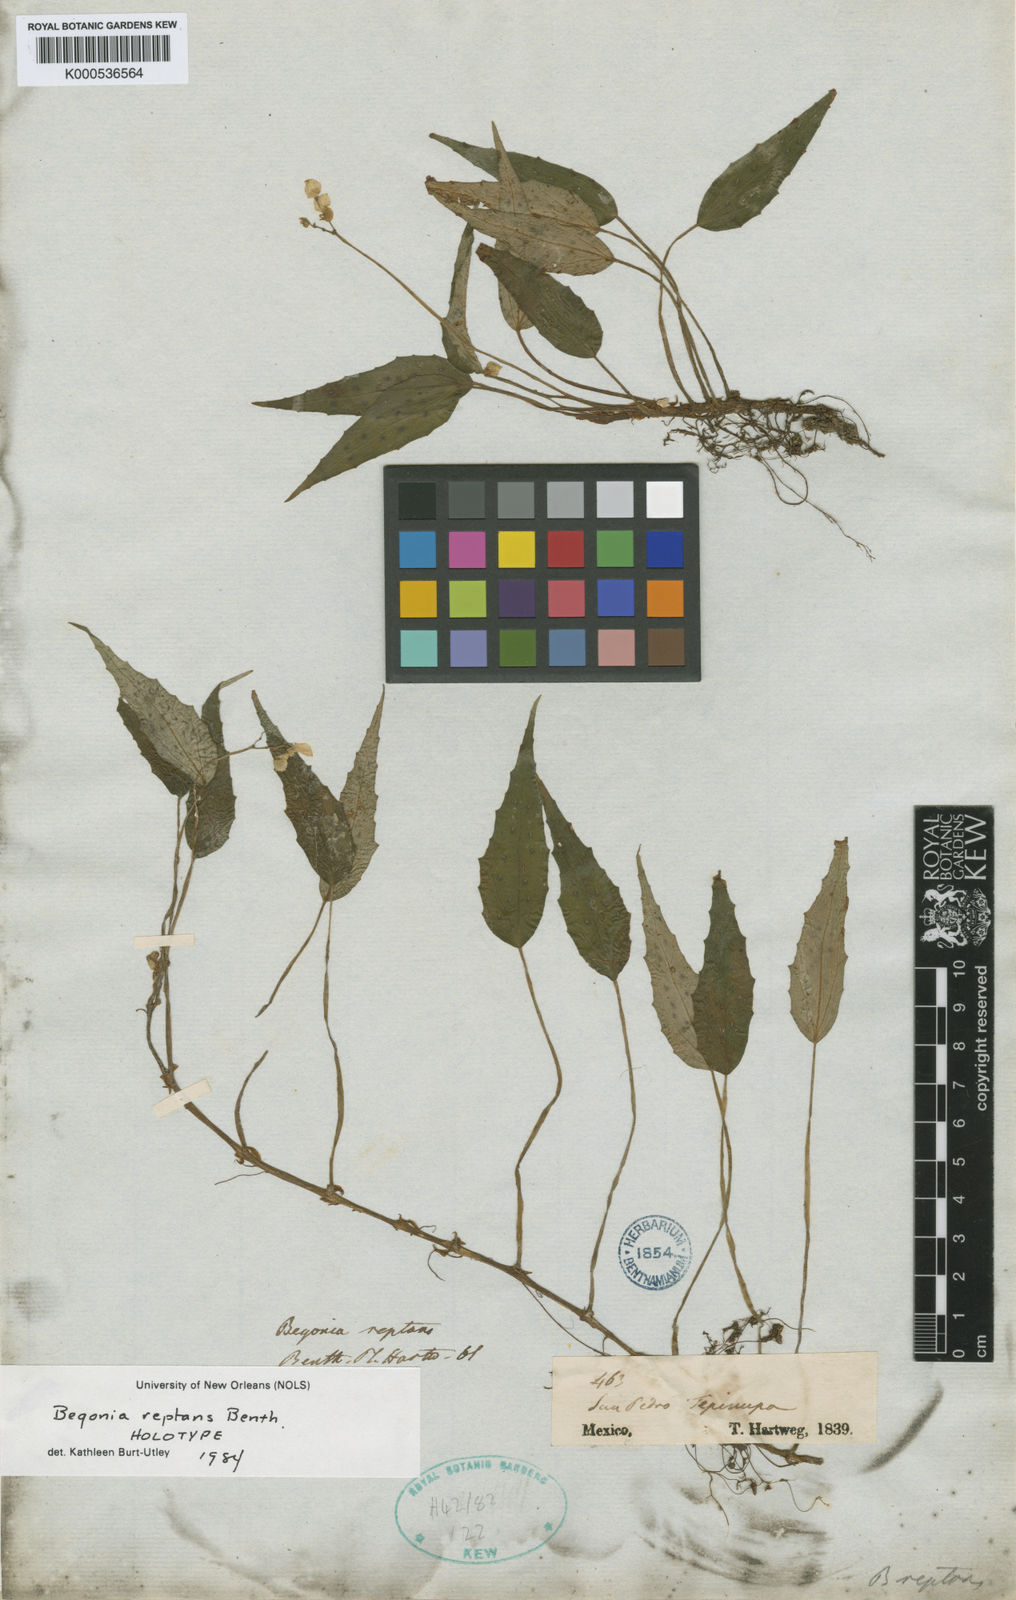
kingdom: Plantae
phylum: Tracheophyta
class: Magnoliopsida
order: Cucurbitales
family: Begoniaceae
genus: Begonia
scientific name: Begonia reptans
